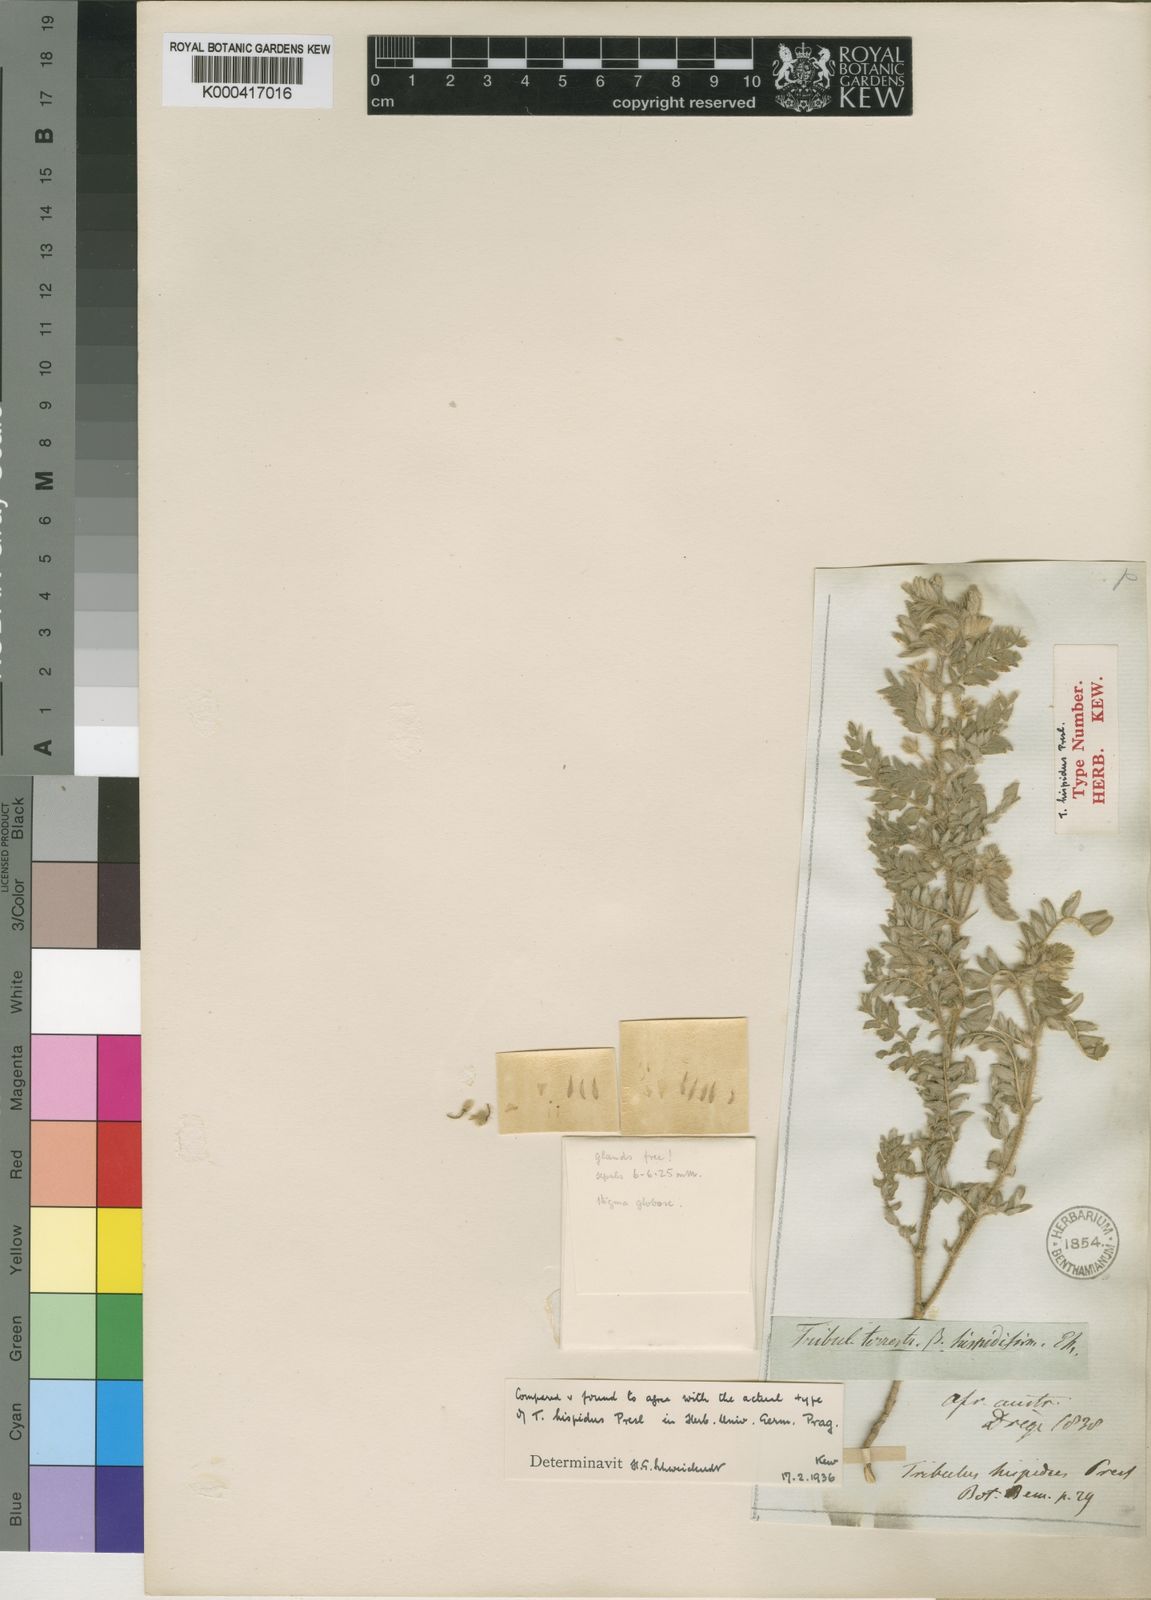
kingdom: Plantae
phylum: Tracheophyta
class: Magnoliopsida
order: Zygophyllales
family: Zygophyllaceae
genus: Tribulus
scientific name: Tribulus terrestris
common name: Puncturevine
